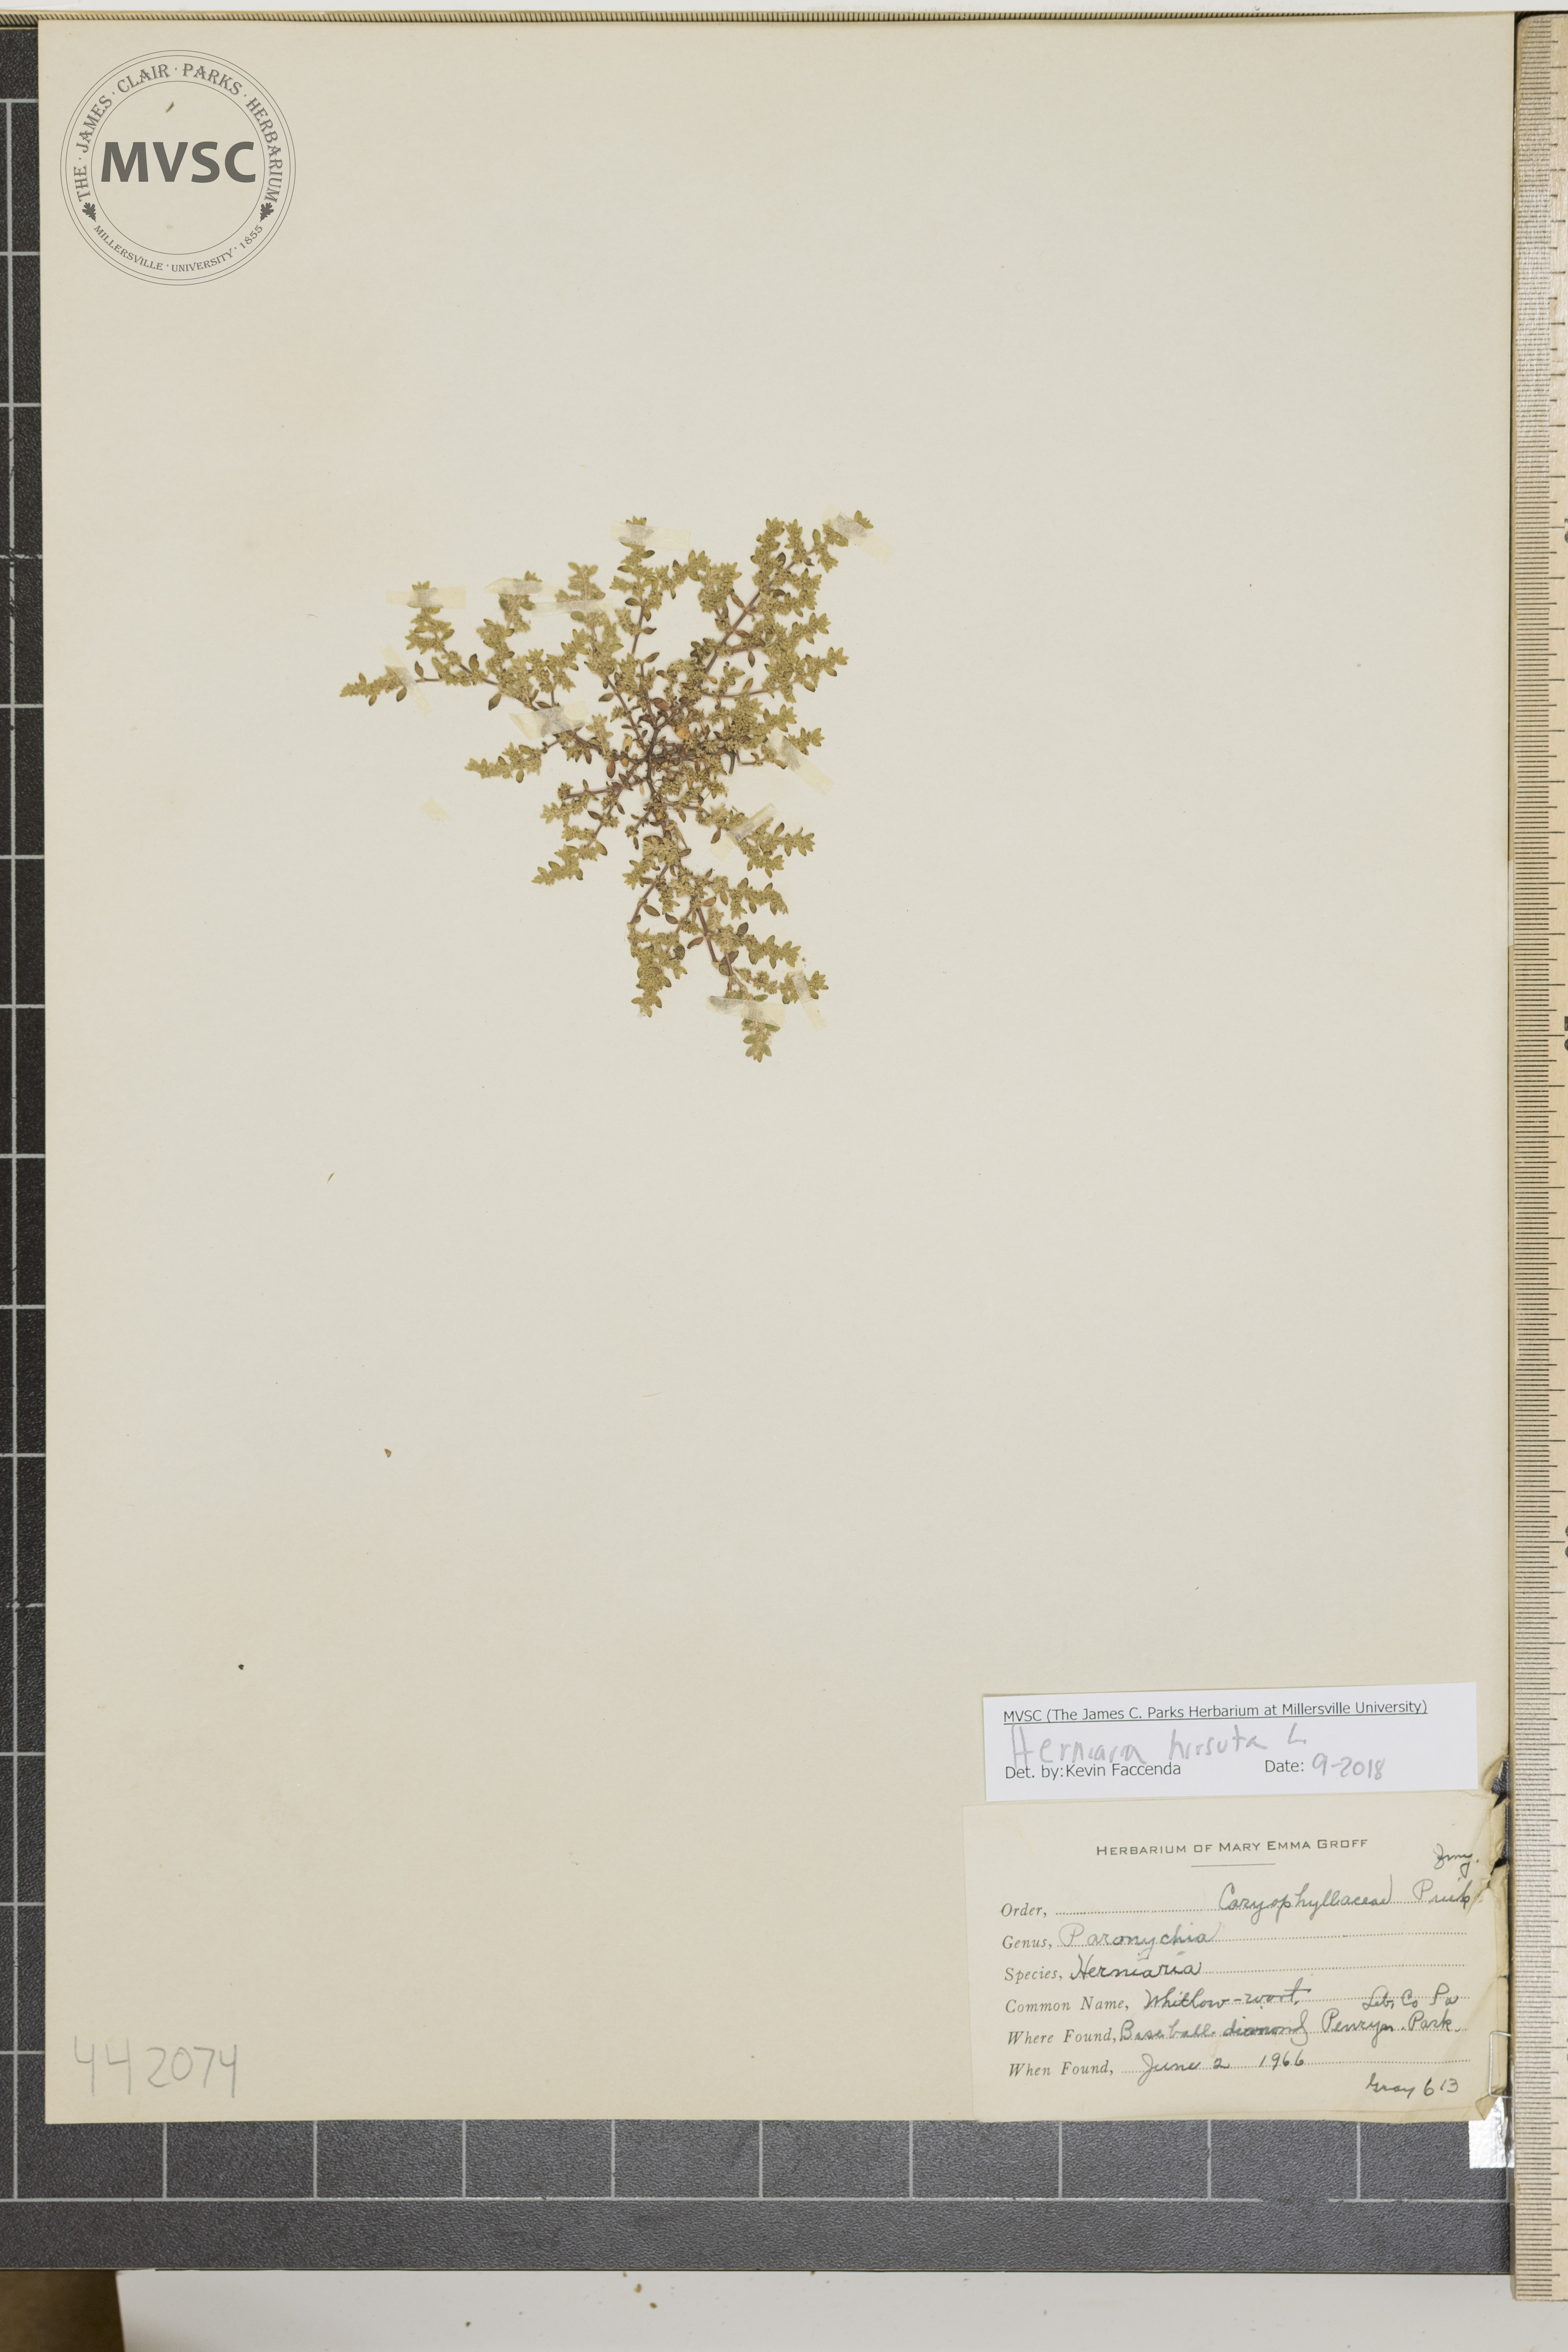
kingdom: Plantae
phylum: Tracheophyta
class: Magnoliopsida
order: Caryophyllales
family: Caryophyllaceae
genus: Herniaria
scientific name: Herniaria hirsuta
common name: Whitlow-wort
